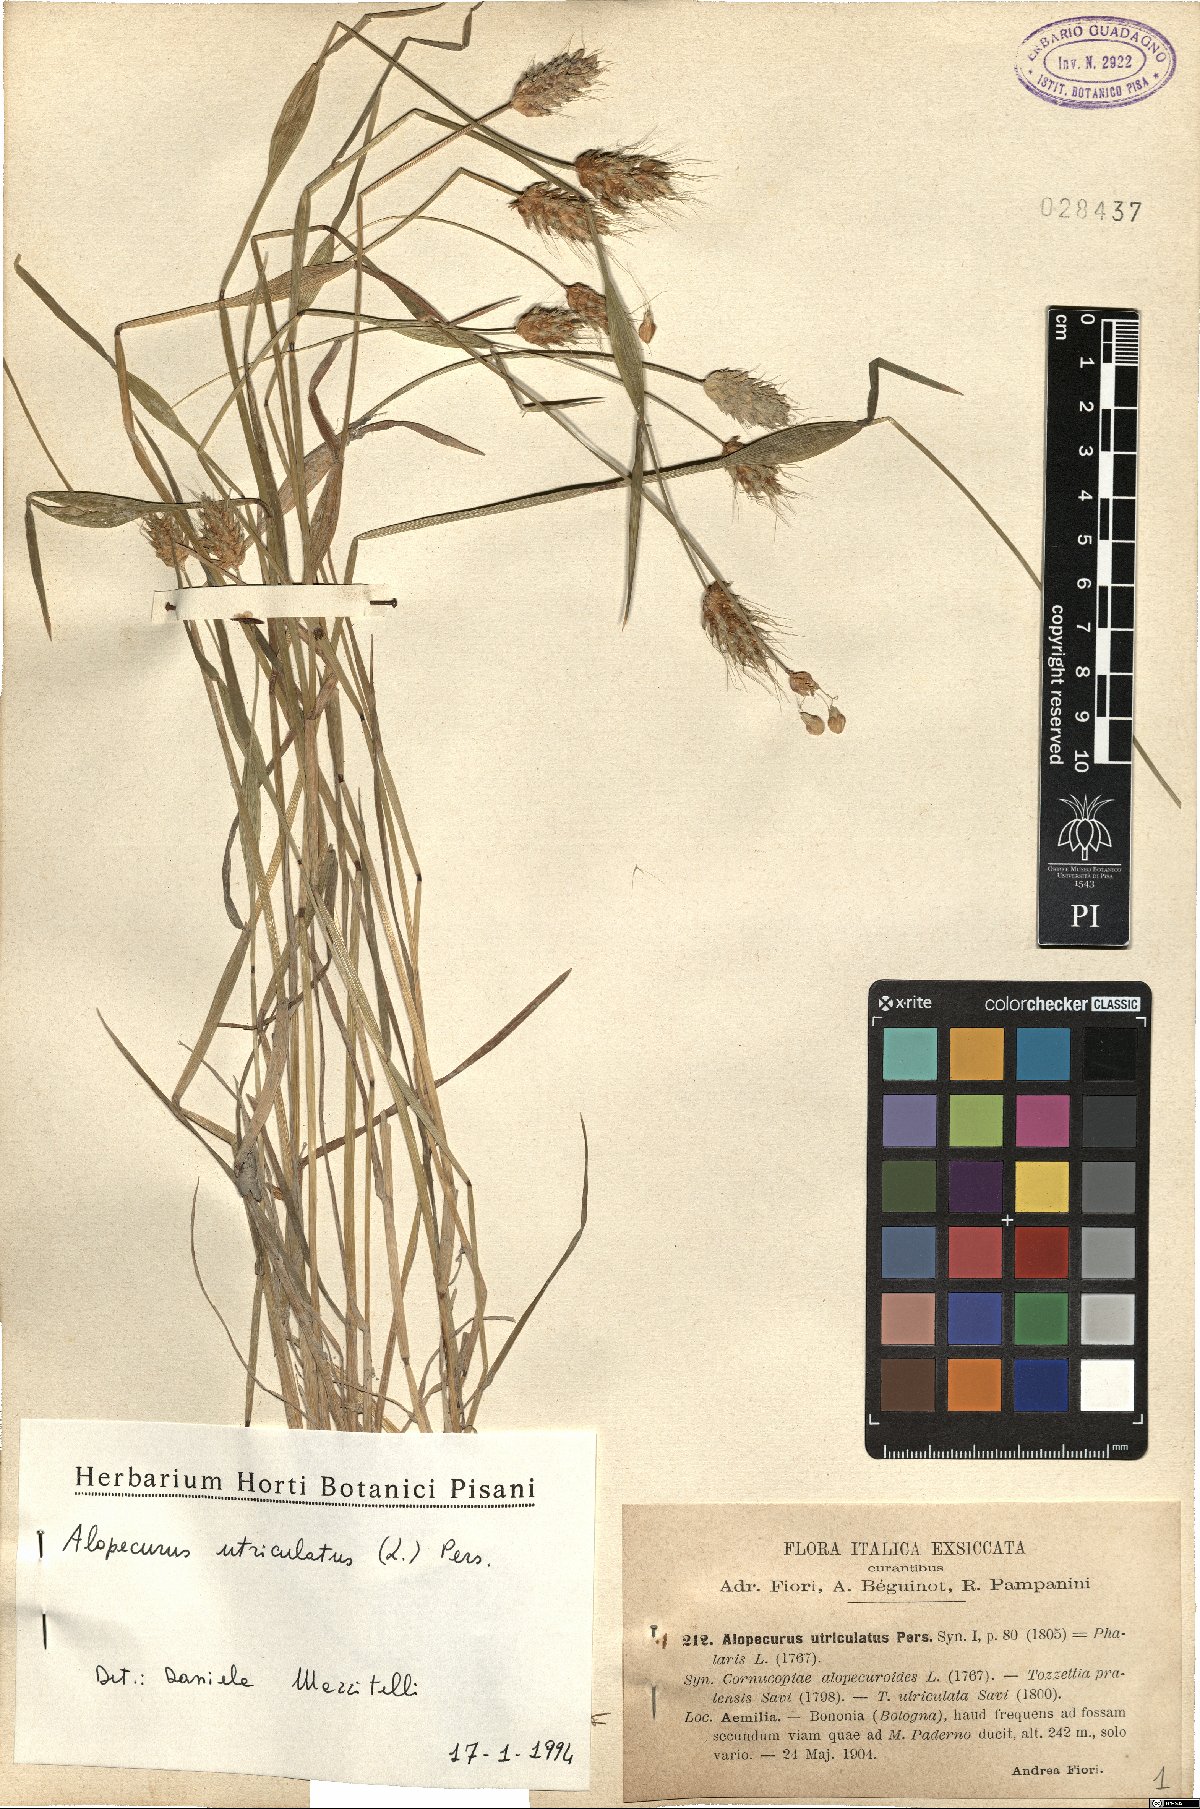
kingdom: Plantae
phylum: Tracheophyta
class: Liliopsida
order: Poales
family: Poaceae
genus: Alopecurus
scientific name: Alopecurus rendlei
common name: Rendle's meadow foxtail
